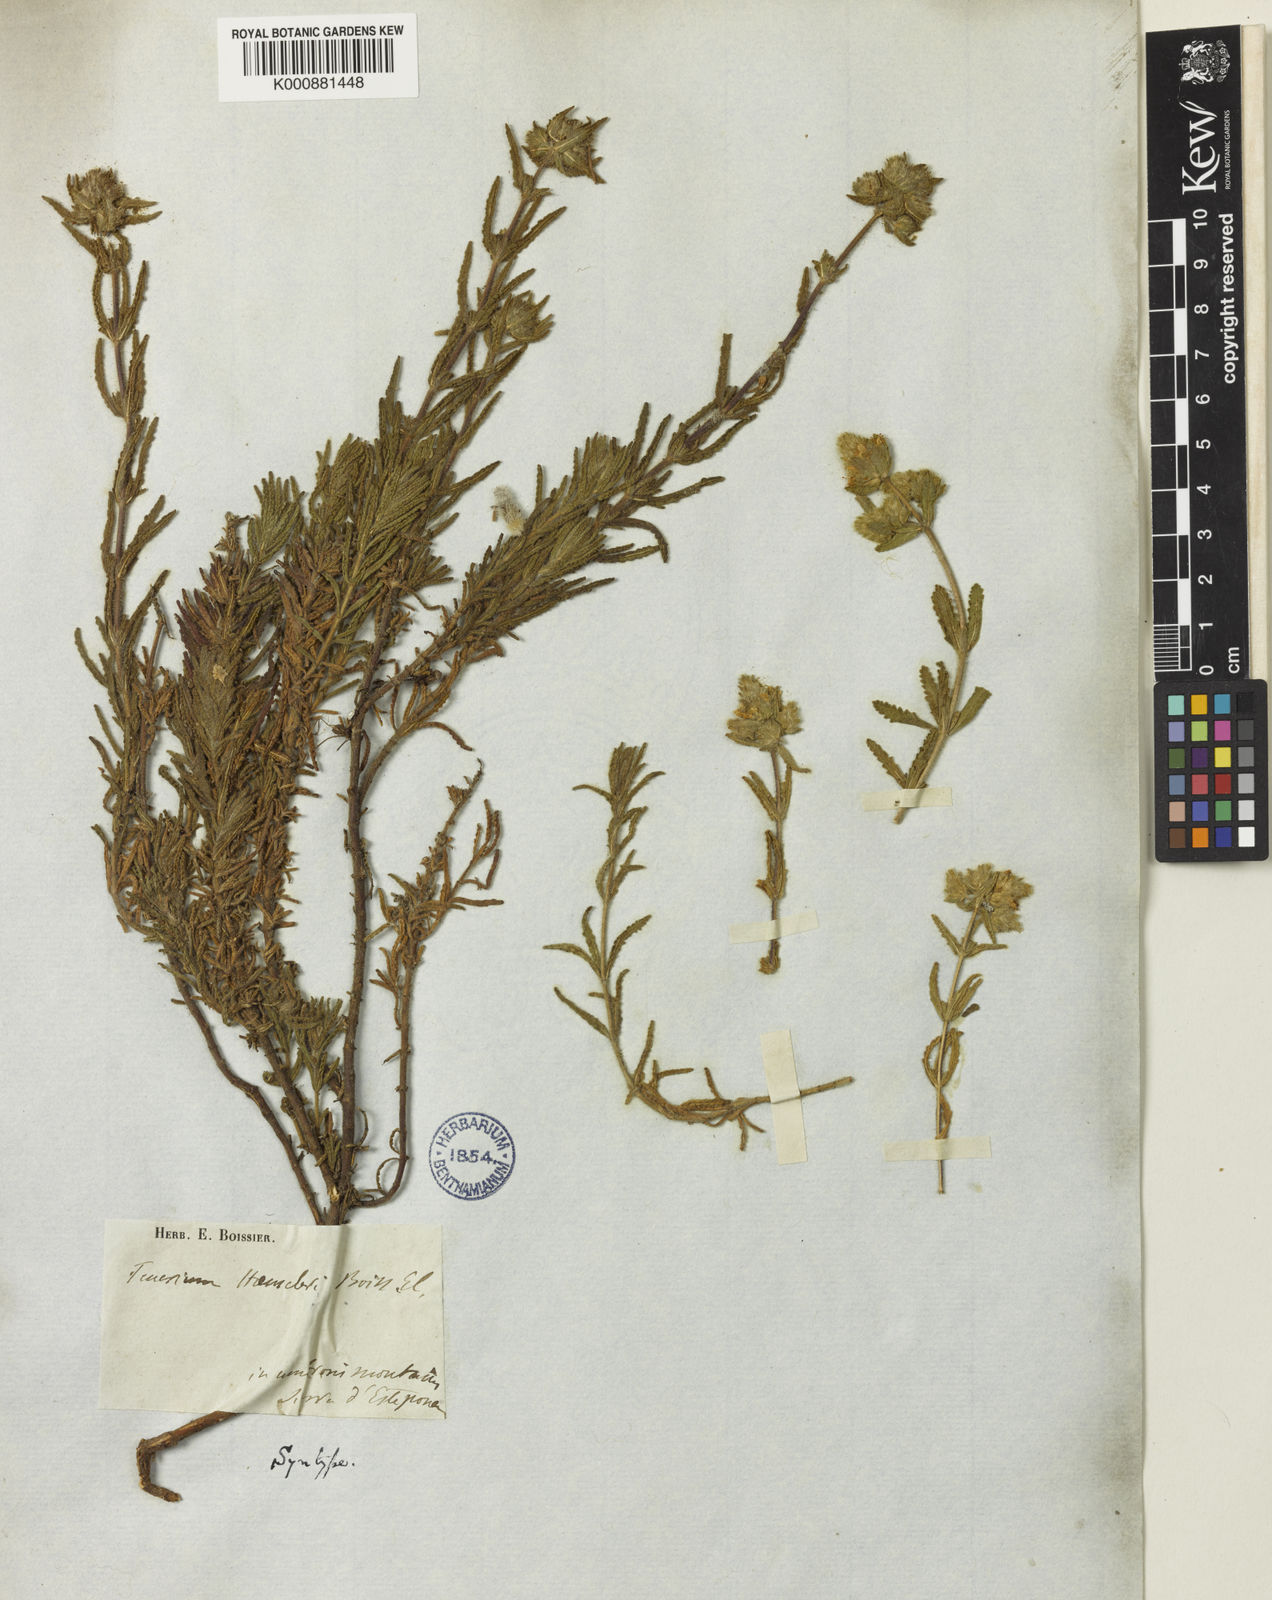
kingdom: Plantae
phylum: Tracheophyta
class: Magnoliopsida
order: Lamiales
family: Lamiaceae
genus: Teucrium
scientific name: Teucrium haenseleri
